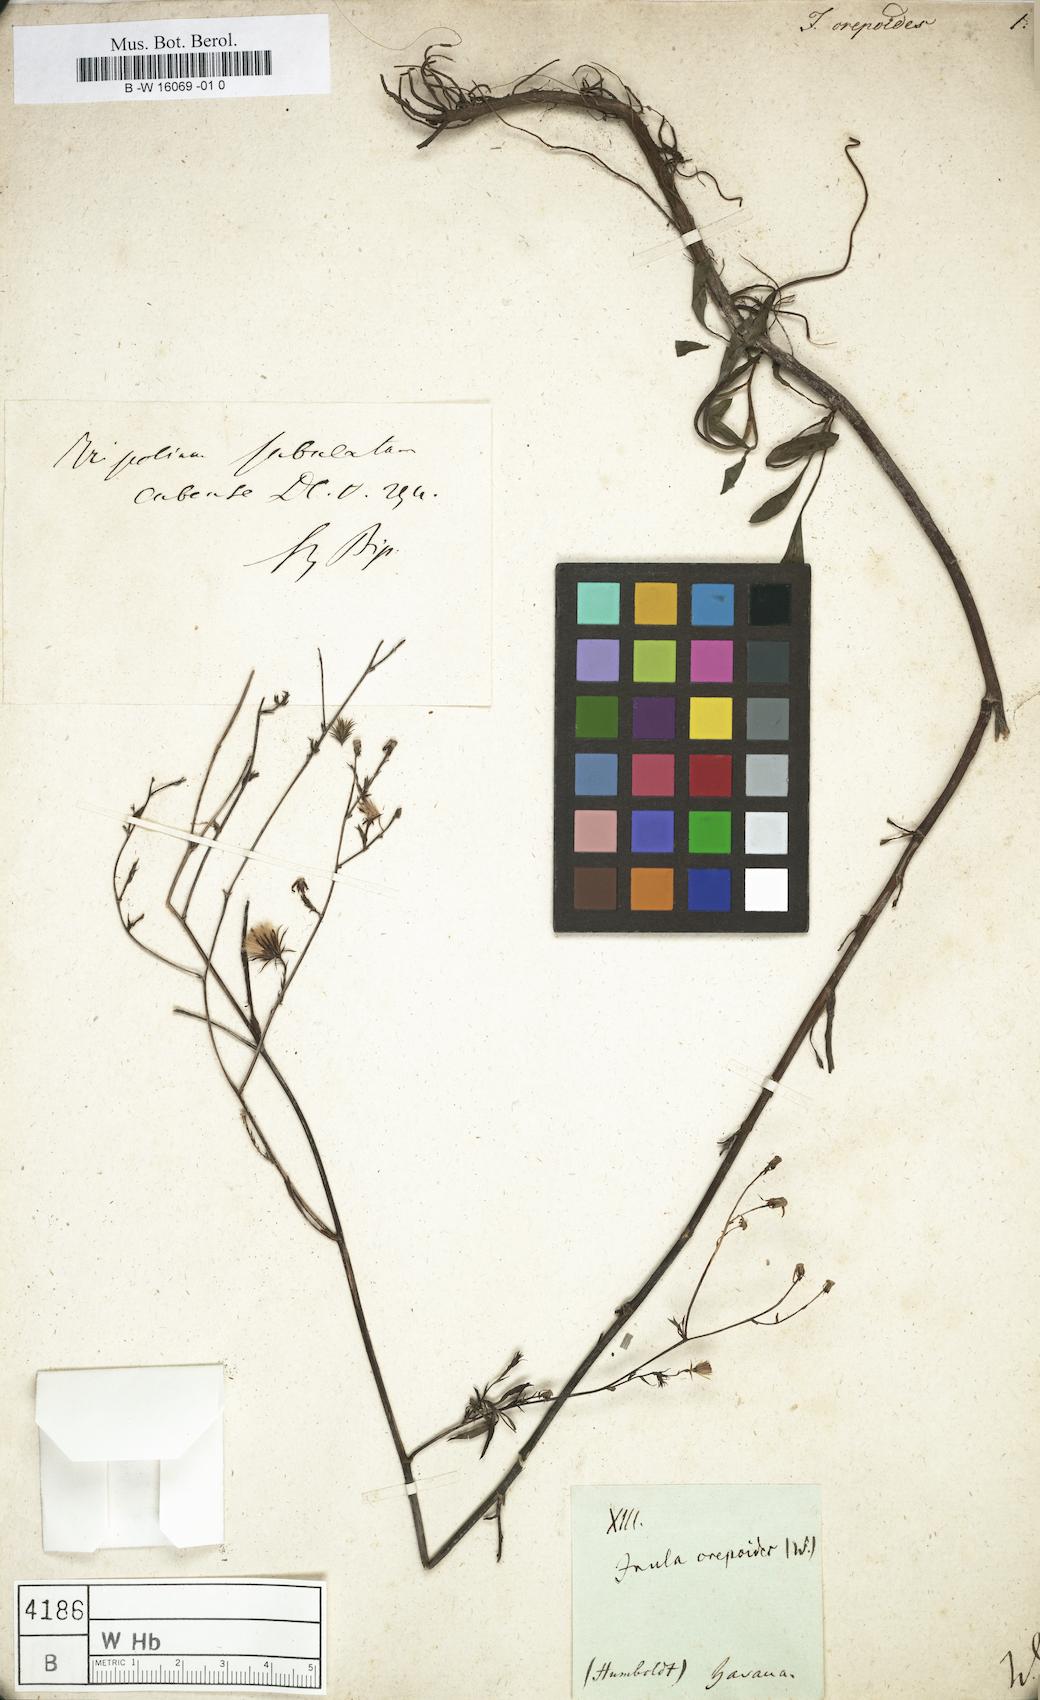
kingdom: Plantae
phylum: Tracheophyta
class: Magnoliopsida
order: Asterales
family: Asteraceae
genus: Inula
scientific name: Inula
